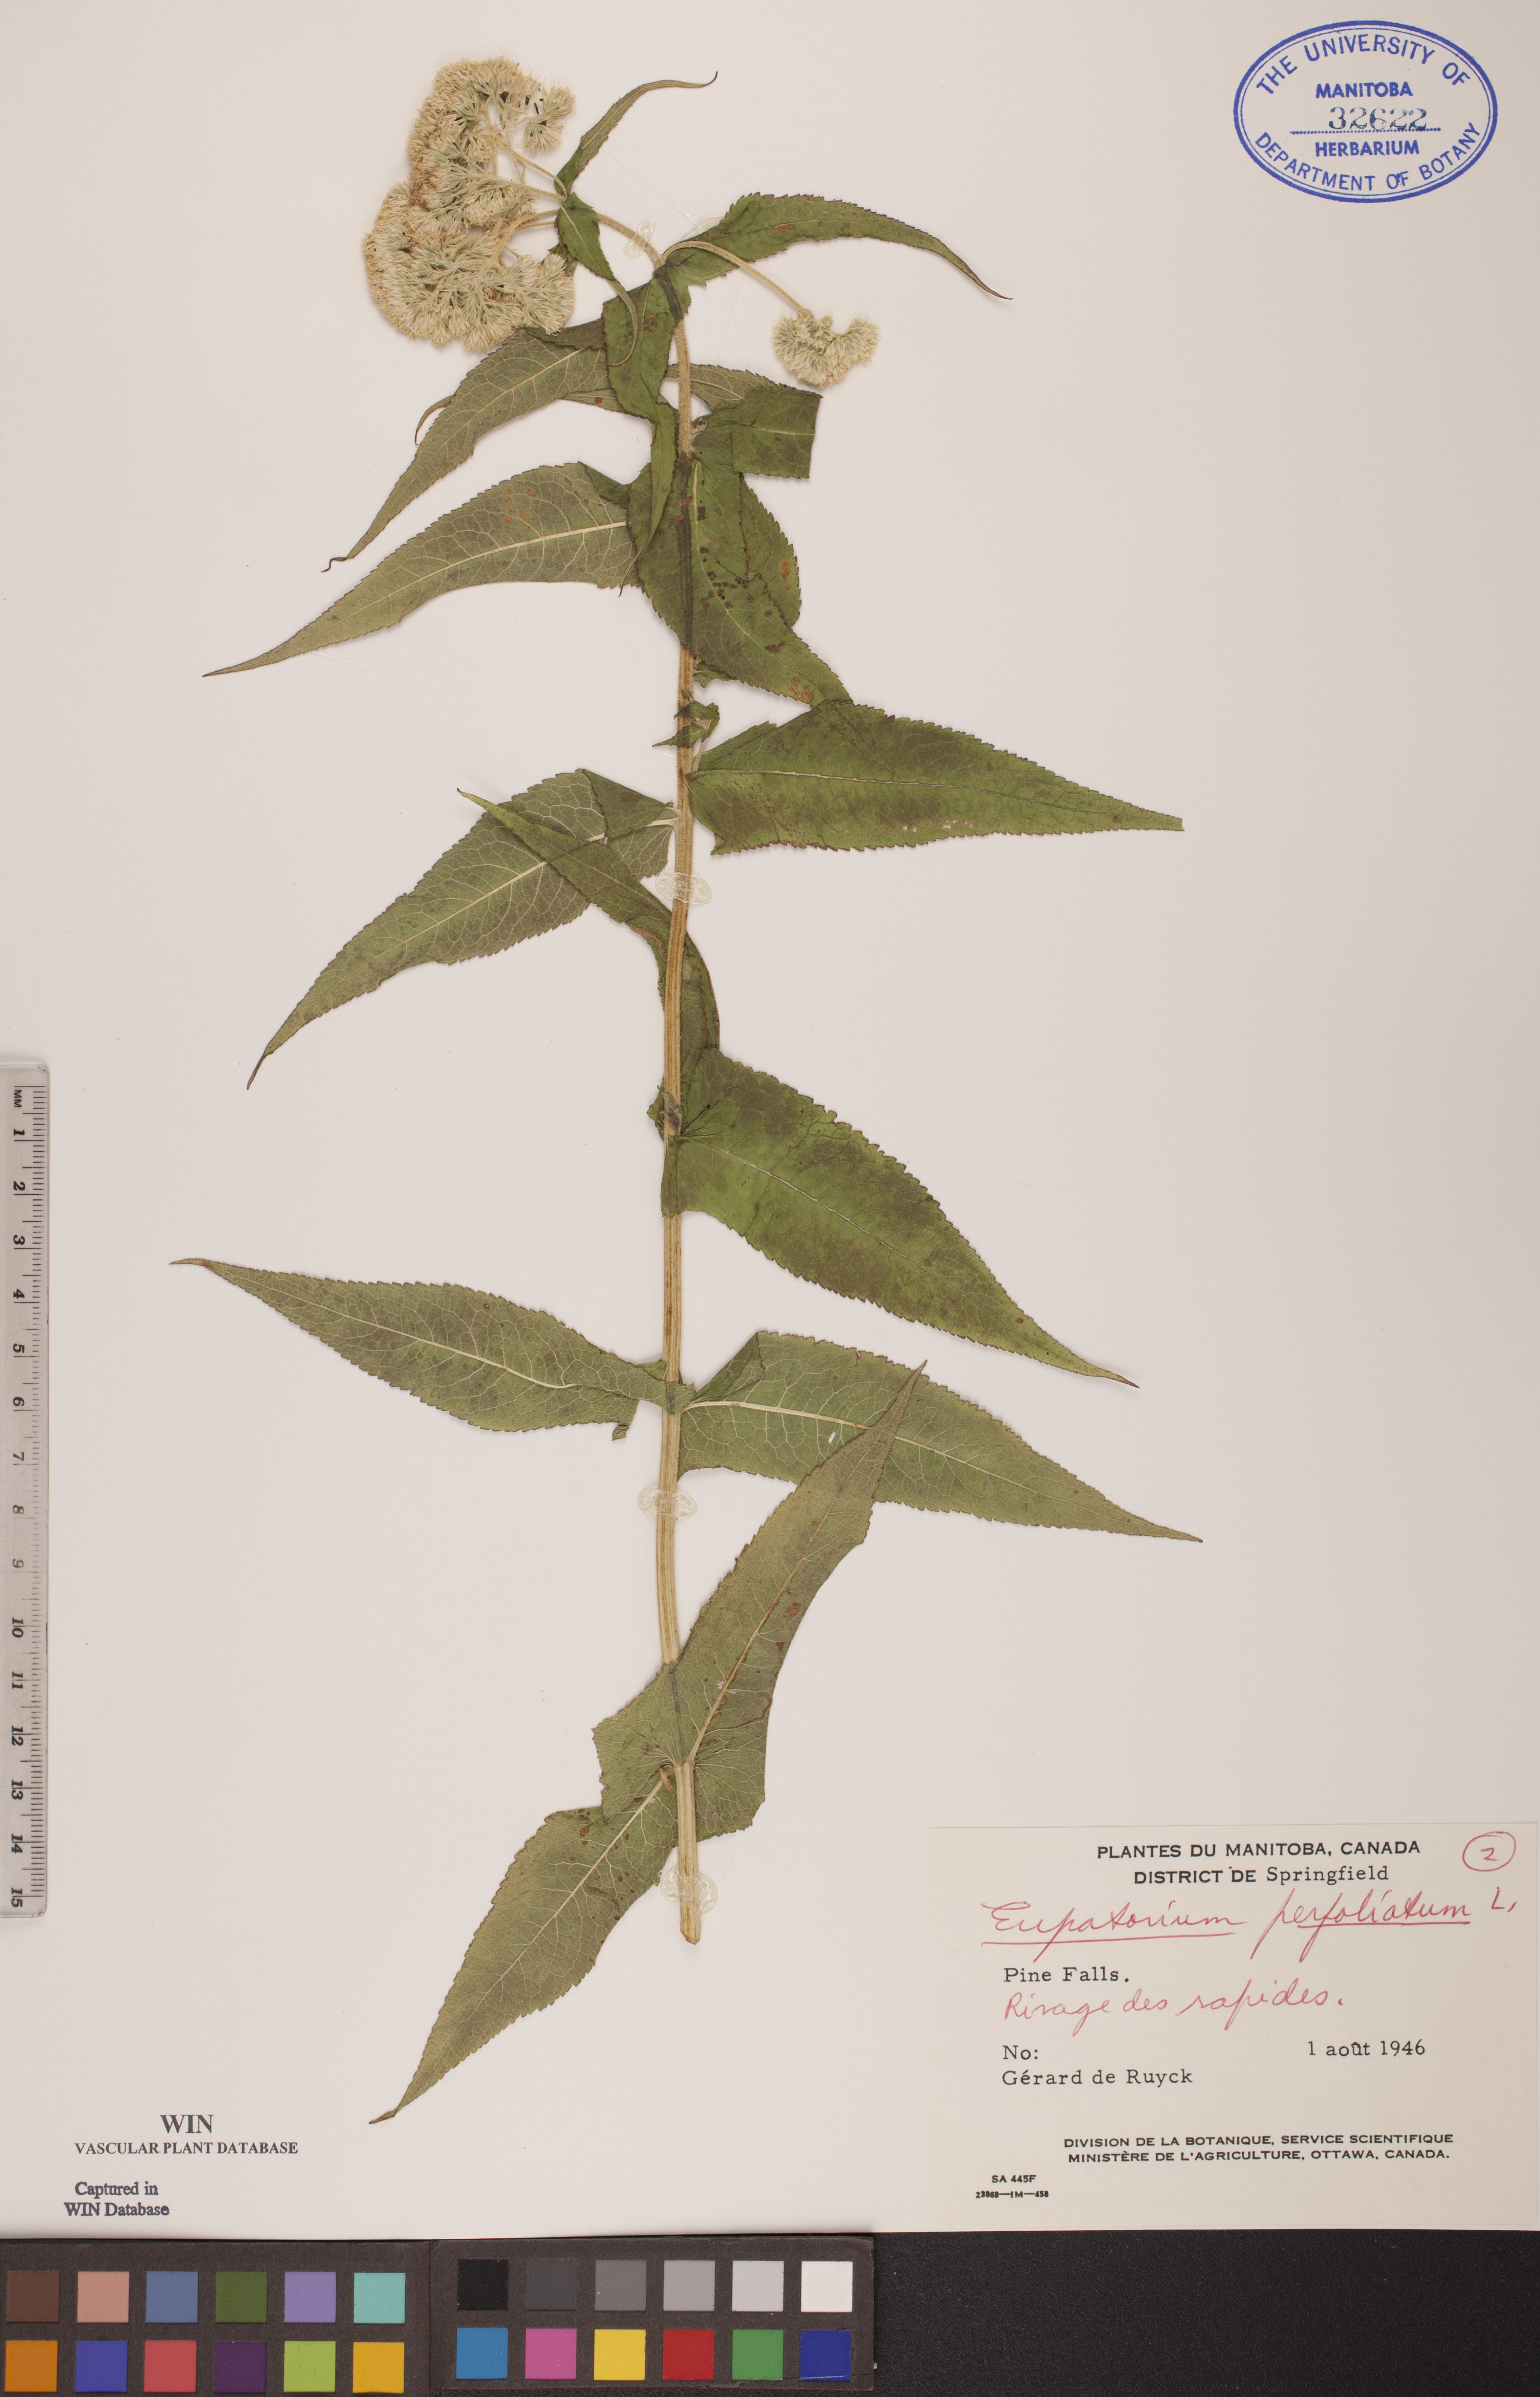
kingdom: Plantae
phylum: Tracheophyta
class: Magnoliopsida
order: Asterales
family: Asteraceae
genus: Eupatorium
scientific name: Eupatorium perfoliatum
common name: Boneset
